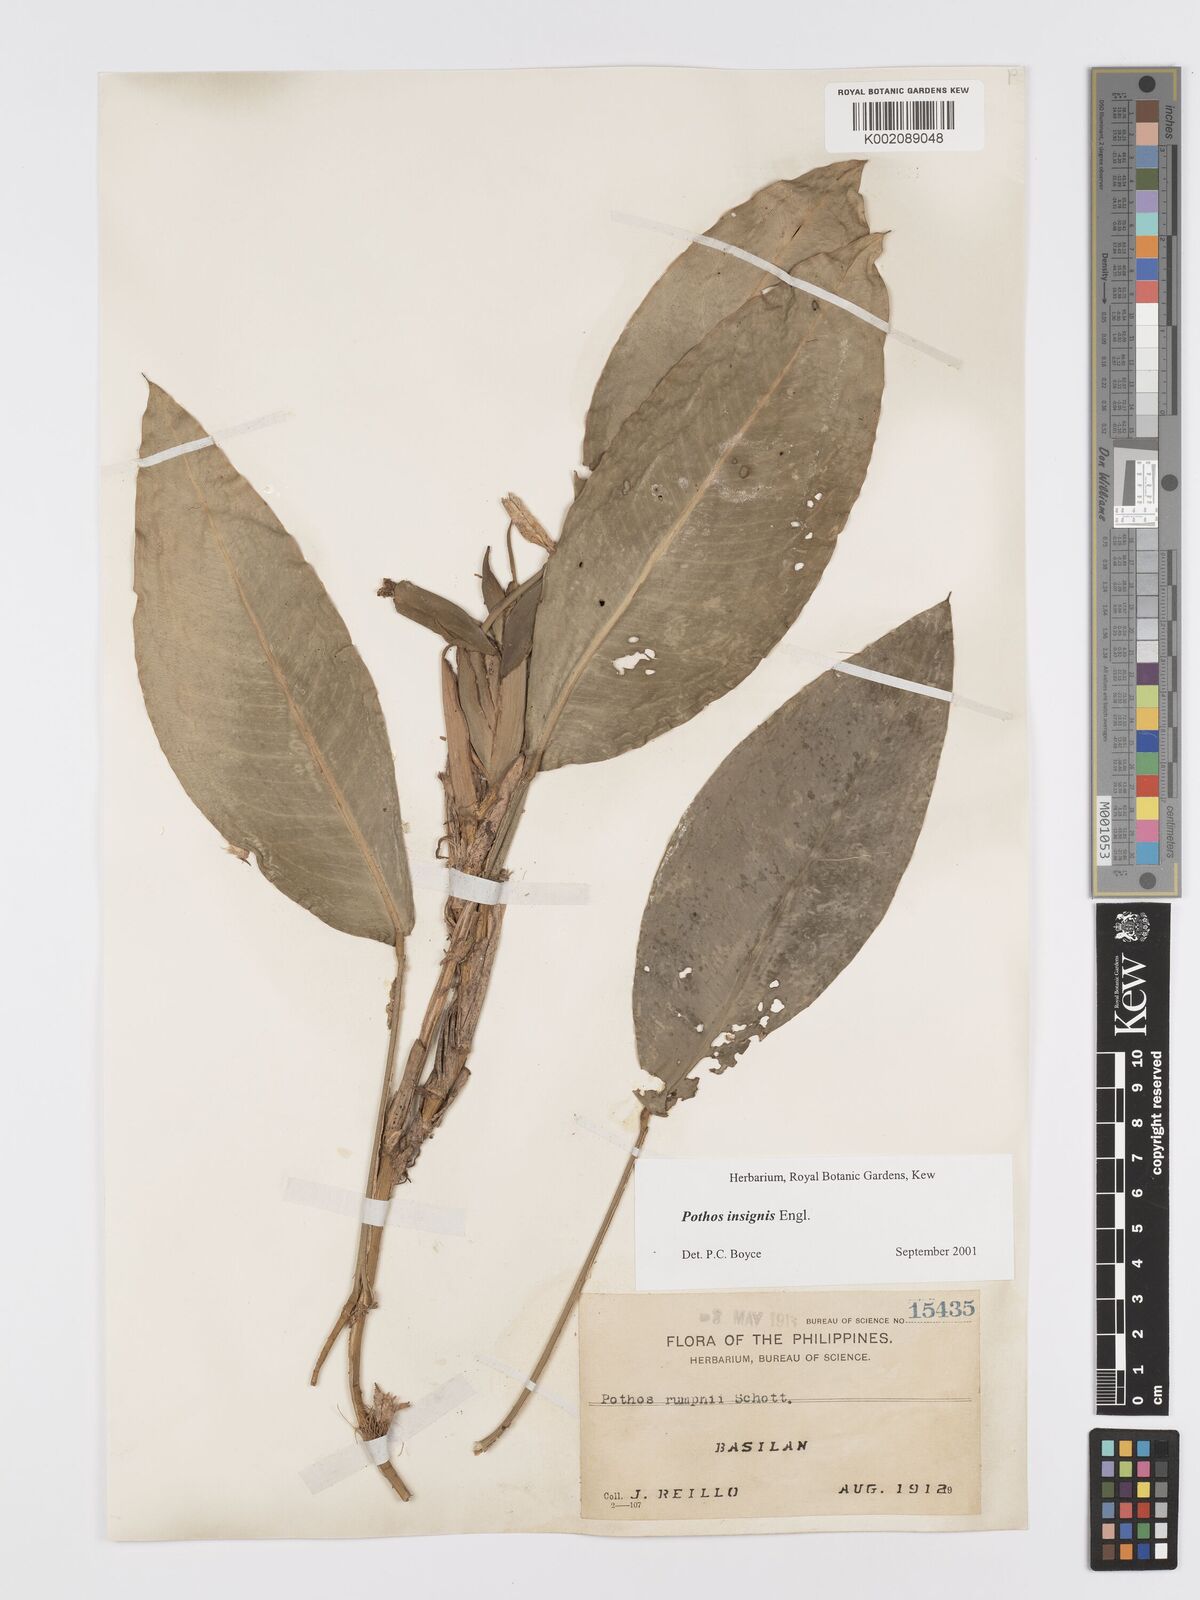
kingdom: Plantae
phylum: Tracheophyta
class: Liliopsida
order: Alismatales
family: Araceae
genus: Pothos
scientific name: Pothos insignis
